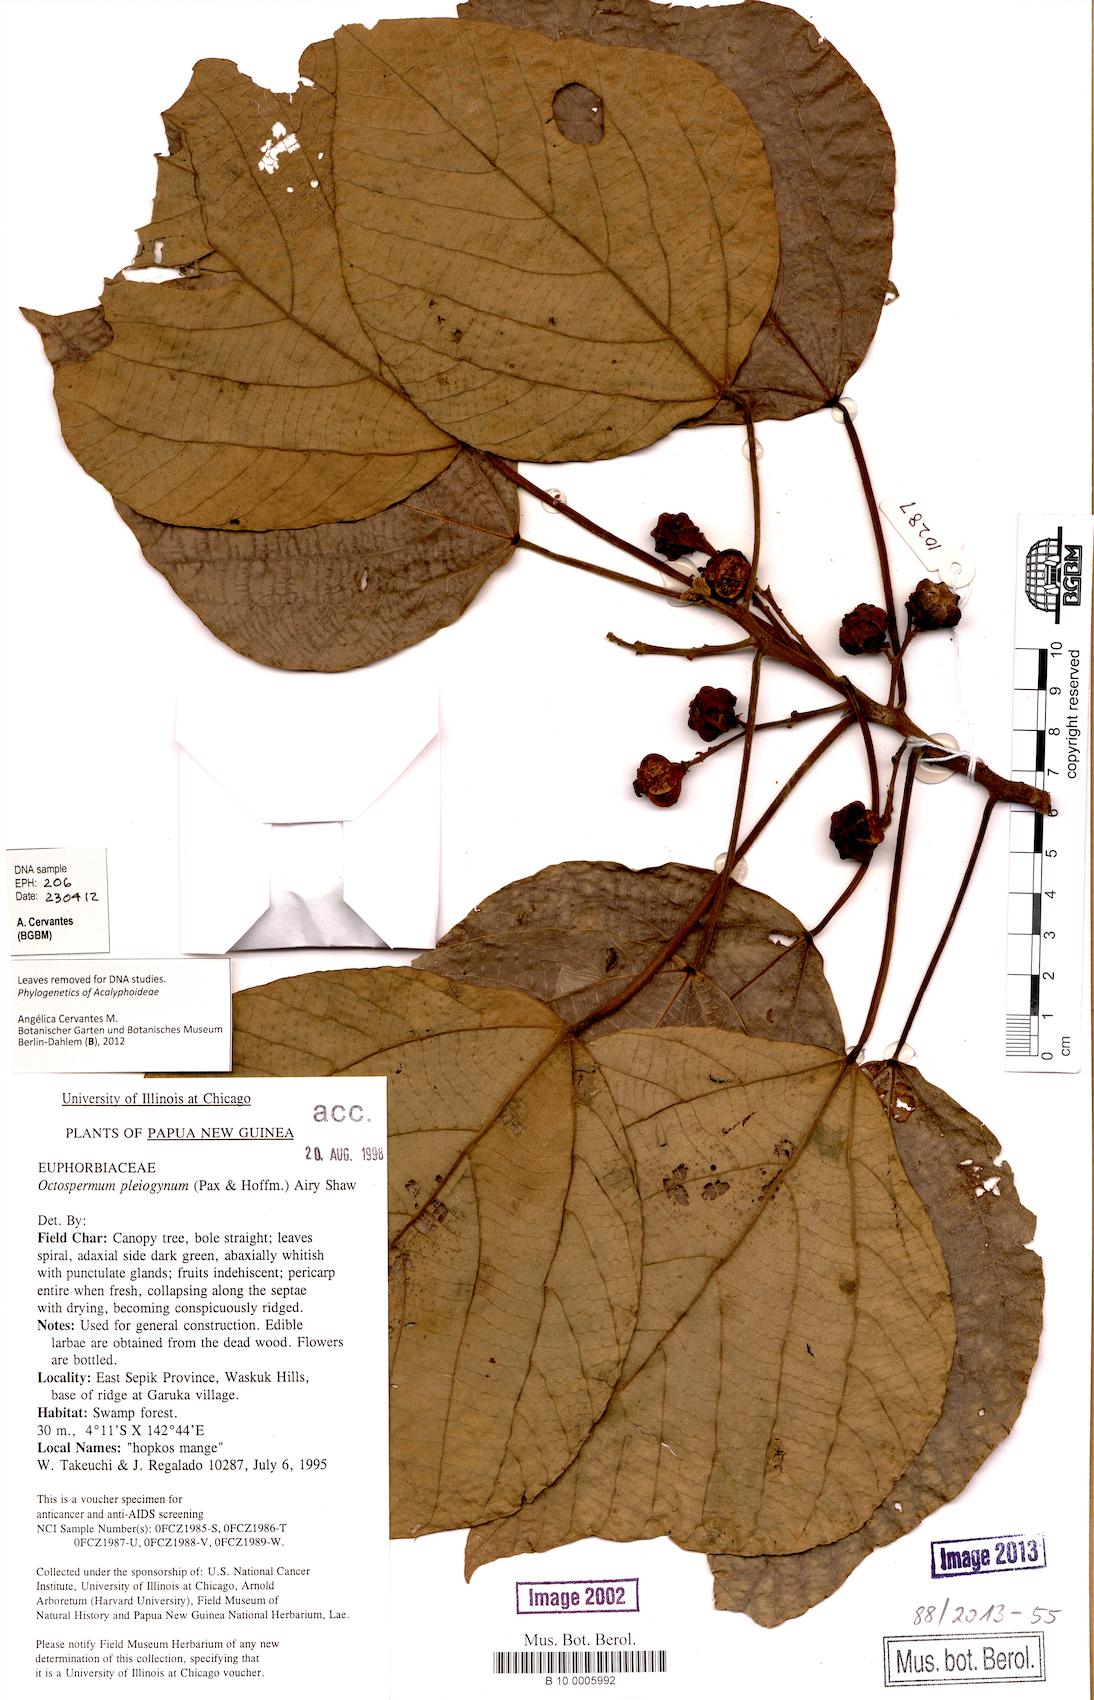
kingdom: Plantae
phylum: Tracheophyta
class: Magnoliopsida
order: Malpighiales
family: Euphorbiaceae
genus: Mallotus
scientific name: Mallotus pleiogynus
